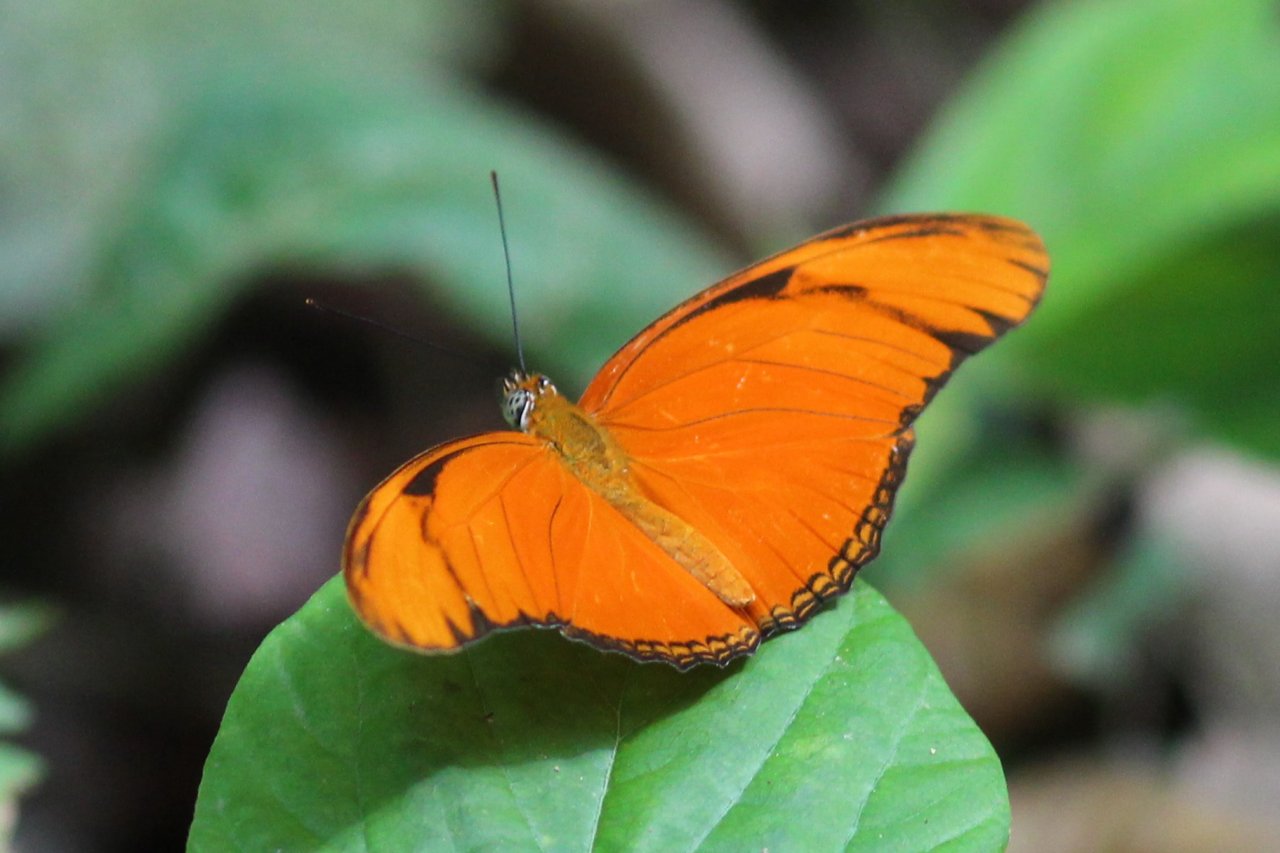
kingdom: Animalia
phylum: Arthropoda
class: Insecta
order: Lepidoptera
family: Nymphalidae
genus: Dryas
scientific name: Dryas iulia
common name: Julia
